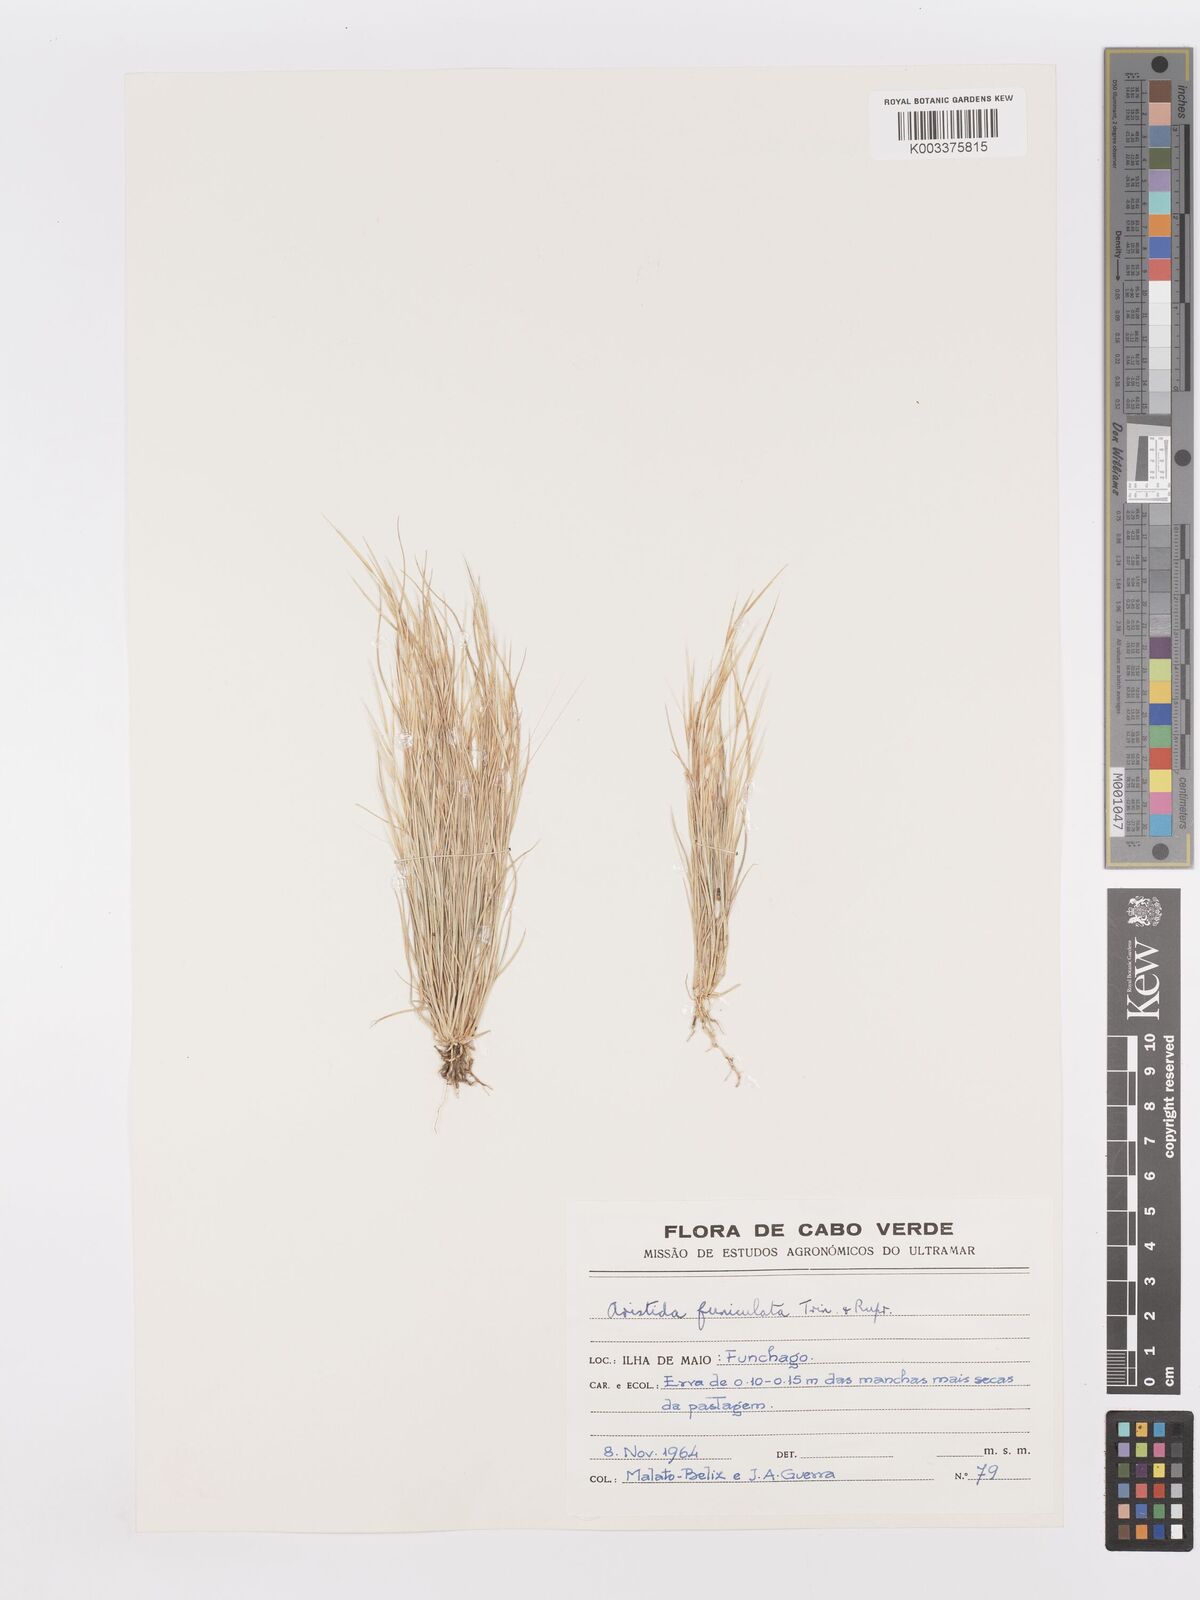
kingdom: Plantae
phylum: Tracheophyta
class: Liliopsida
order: Poales
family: Poaceae
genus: Aristida
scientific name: Aristida funiculata
